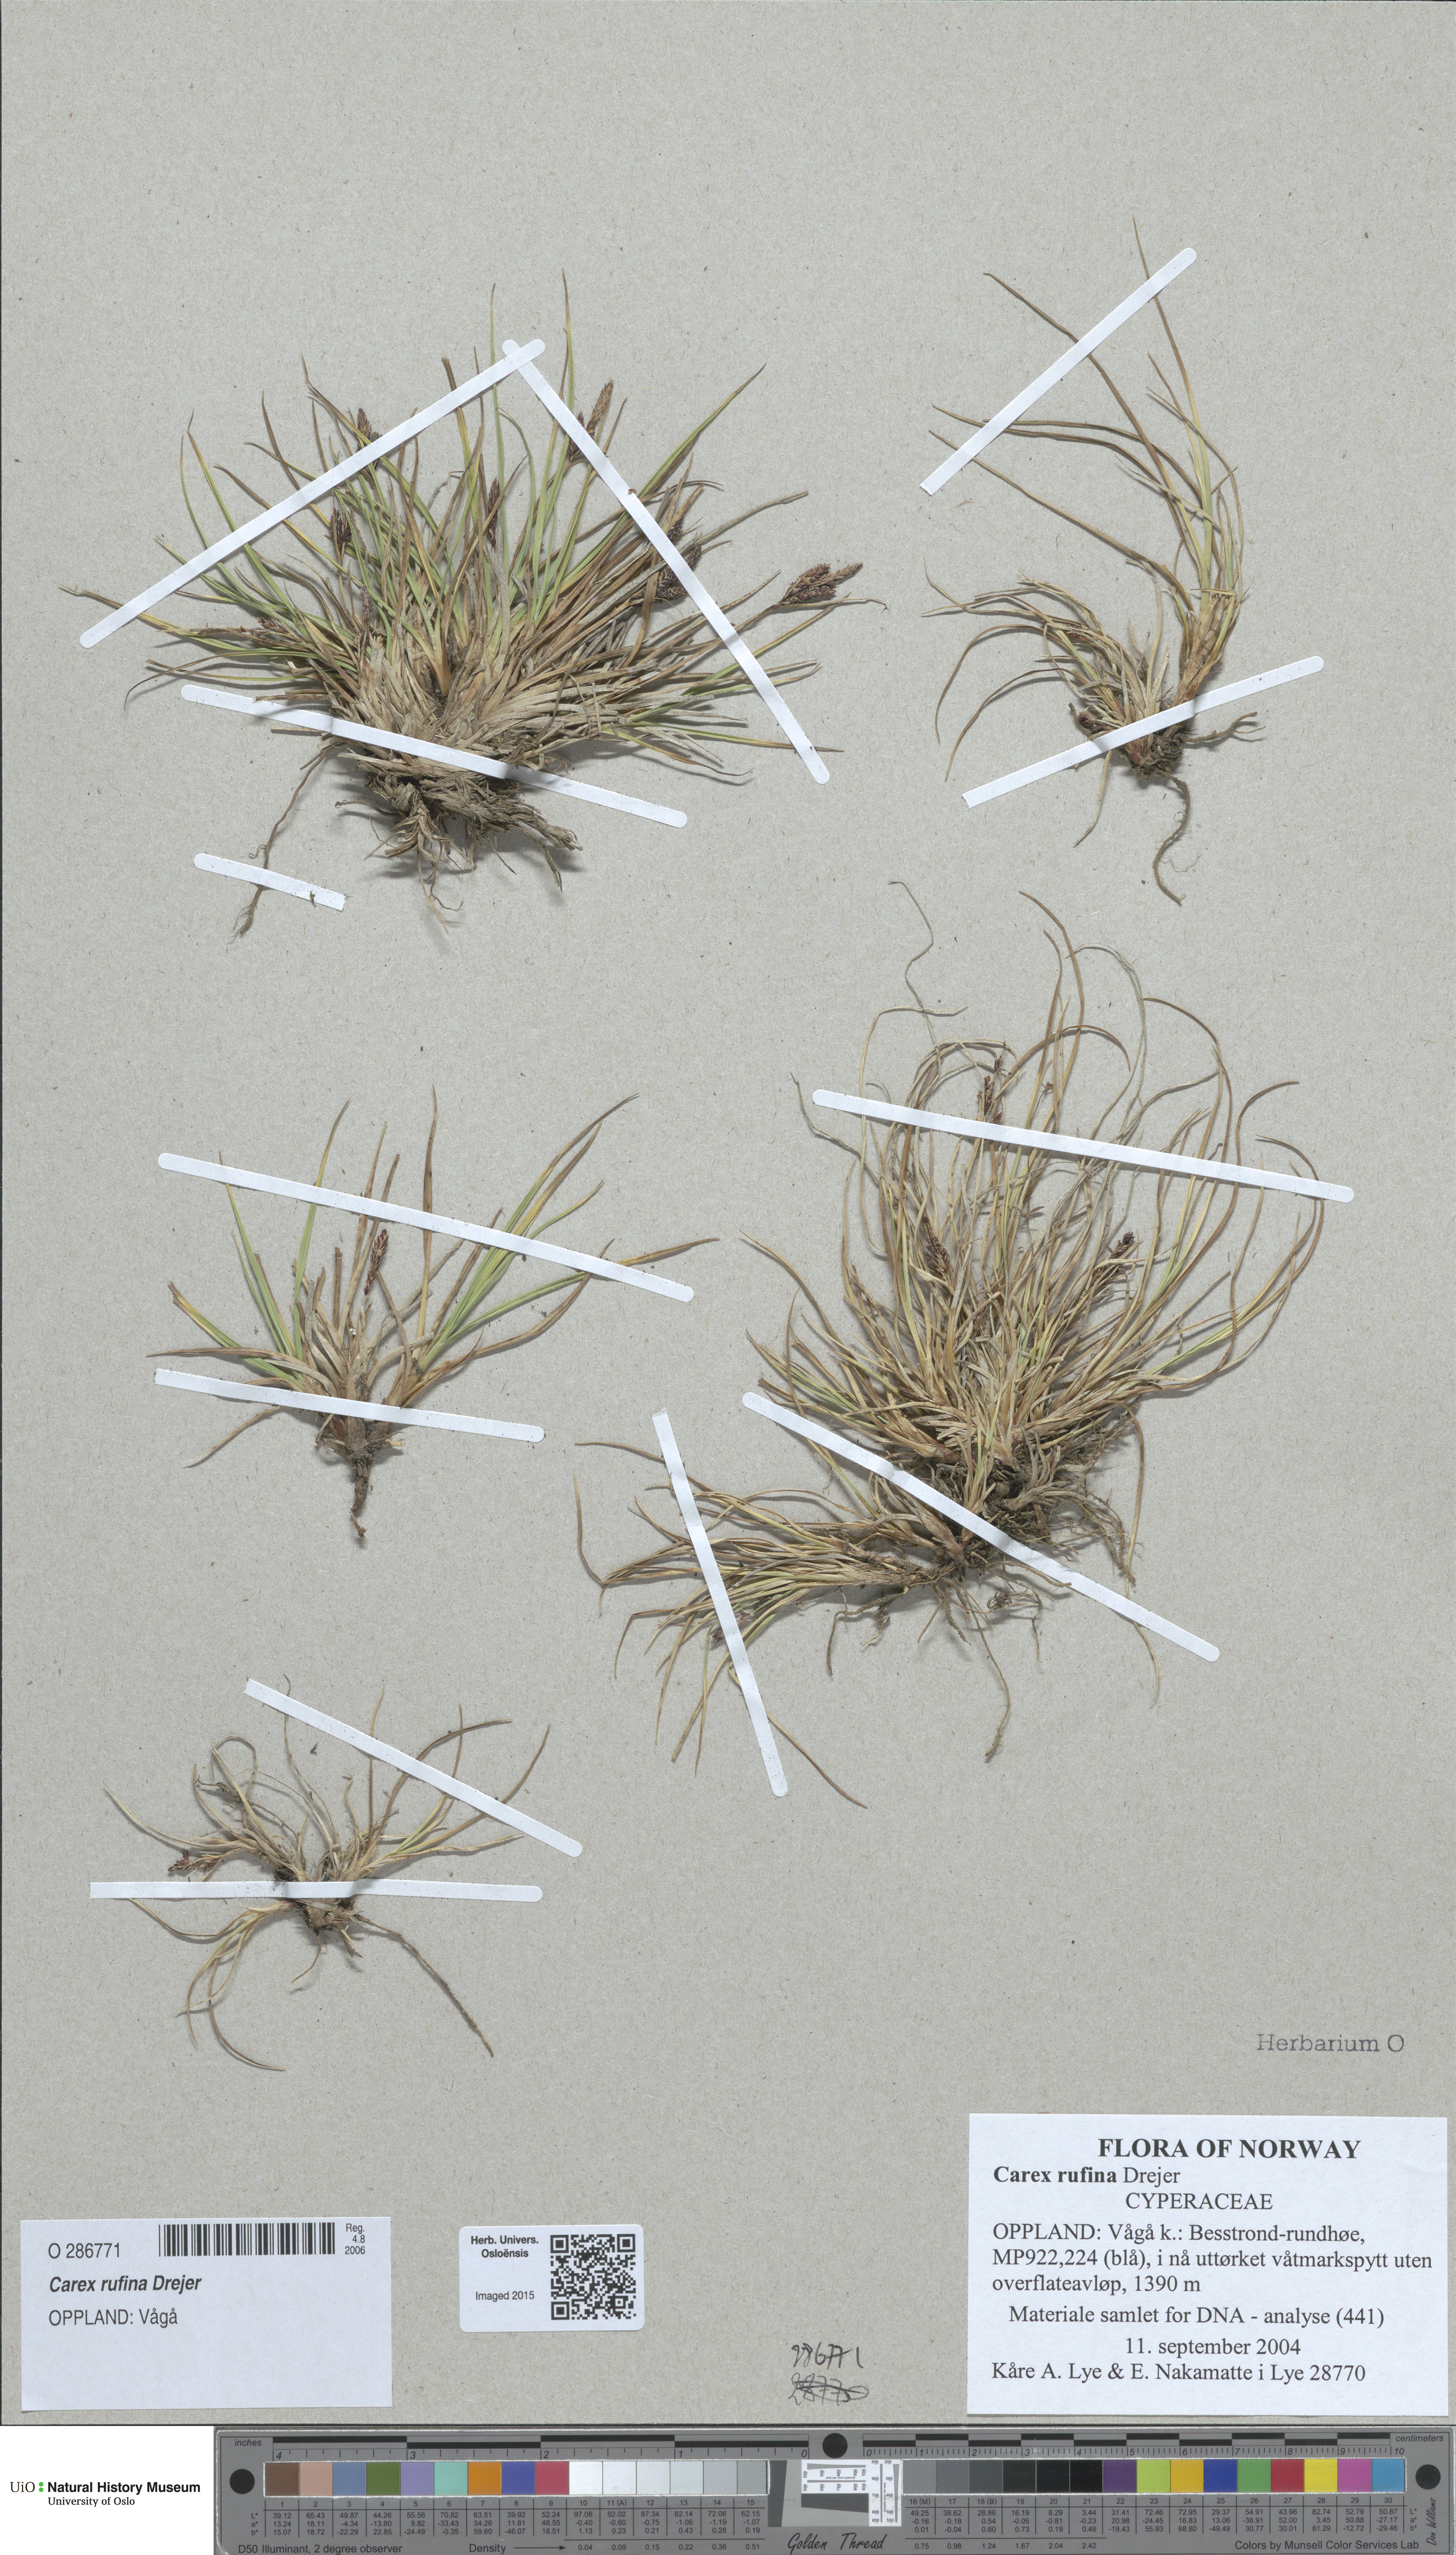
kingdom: Plantae
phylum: Tracheophyta
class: Liliopsida
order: Poales
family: Cyperaceae
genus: Carex
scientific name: Carex rufina
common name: Reddish sedge
